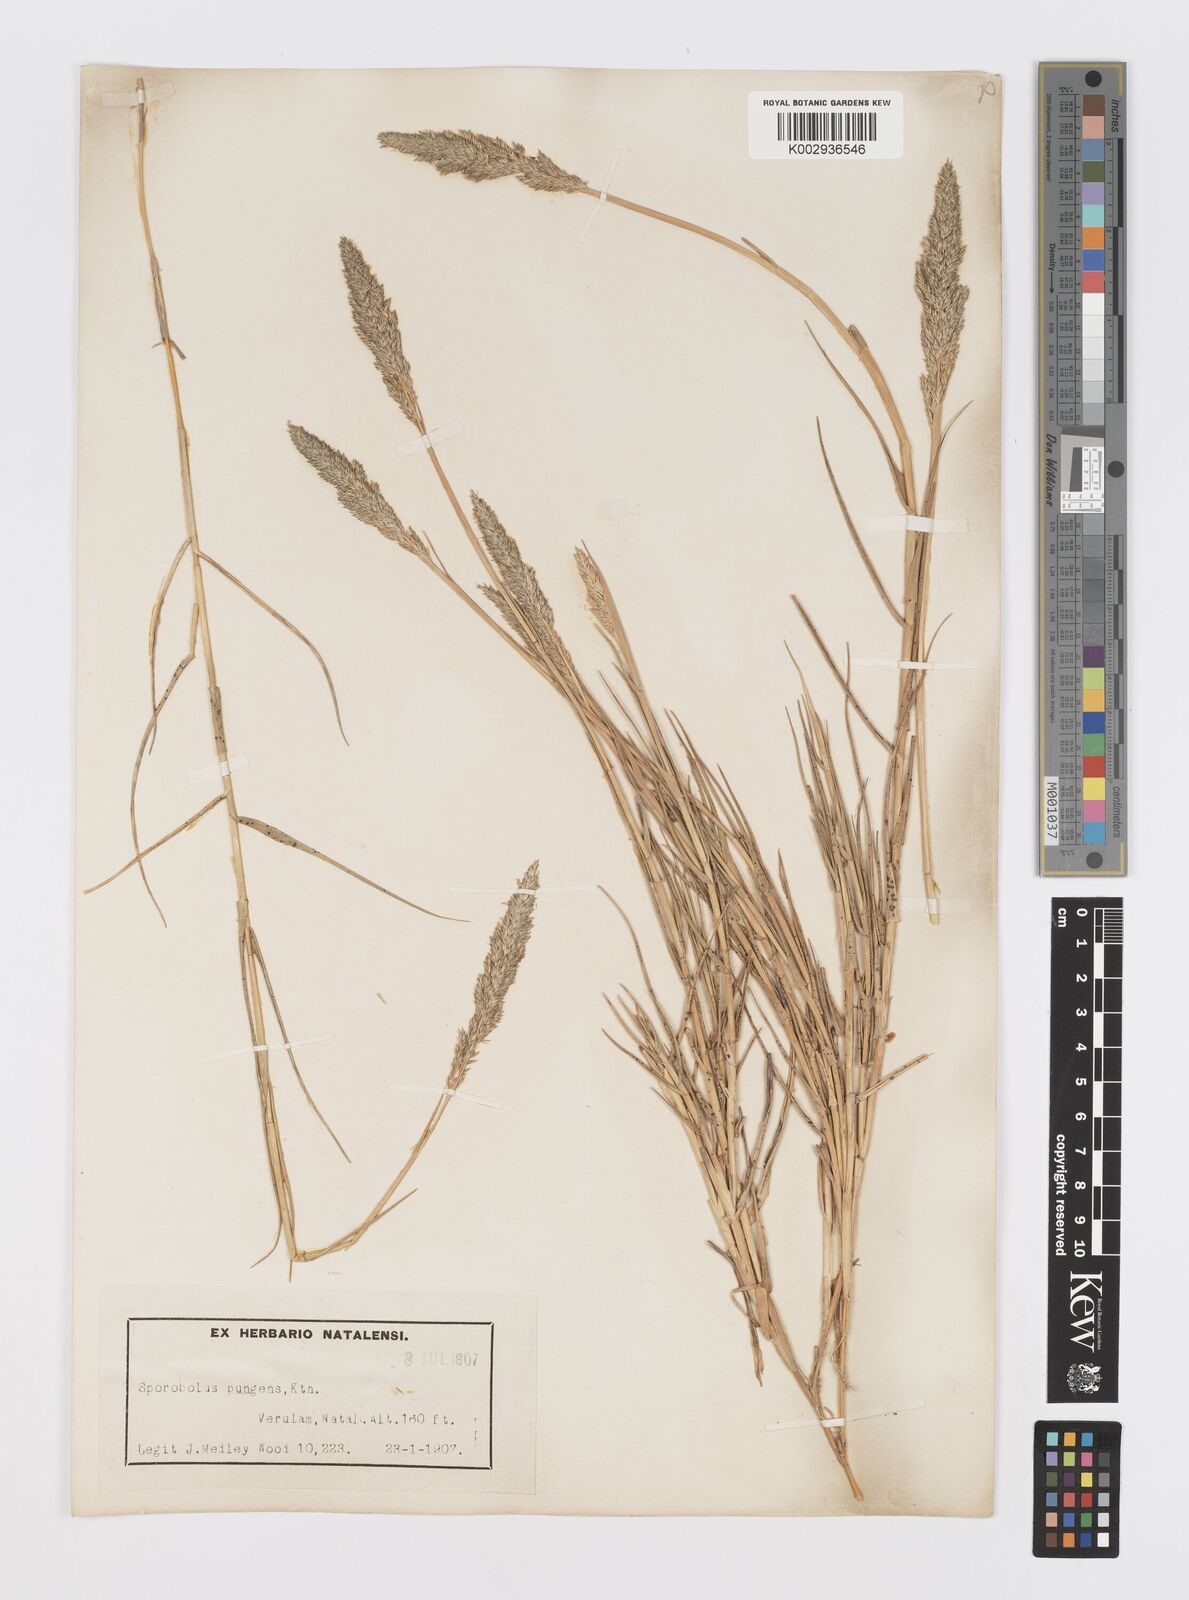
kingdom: Plantae
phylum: Tracheophyta
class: Liliopsida
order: Poales
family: Poaceae
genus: Sporobolus
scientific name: Sporobolus virginicus
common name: Beach dropseed
